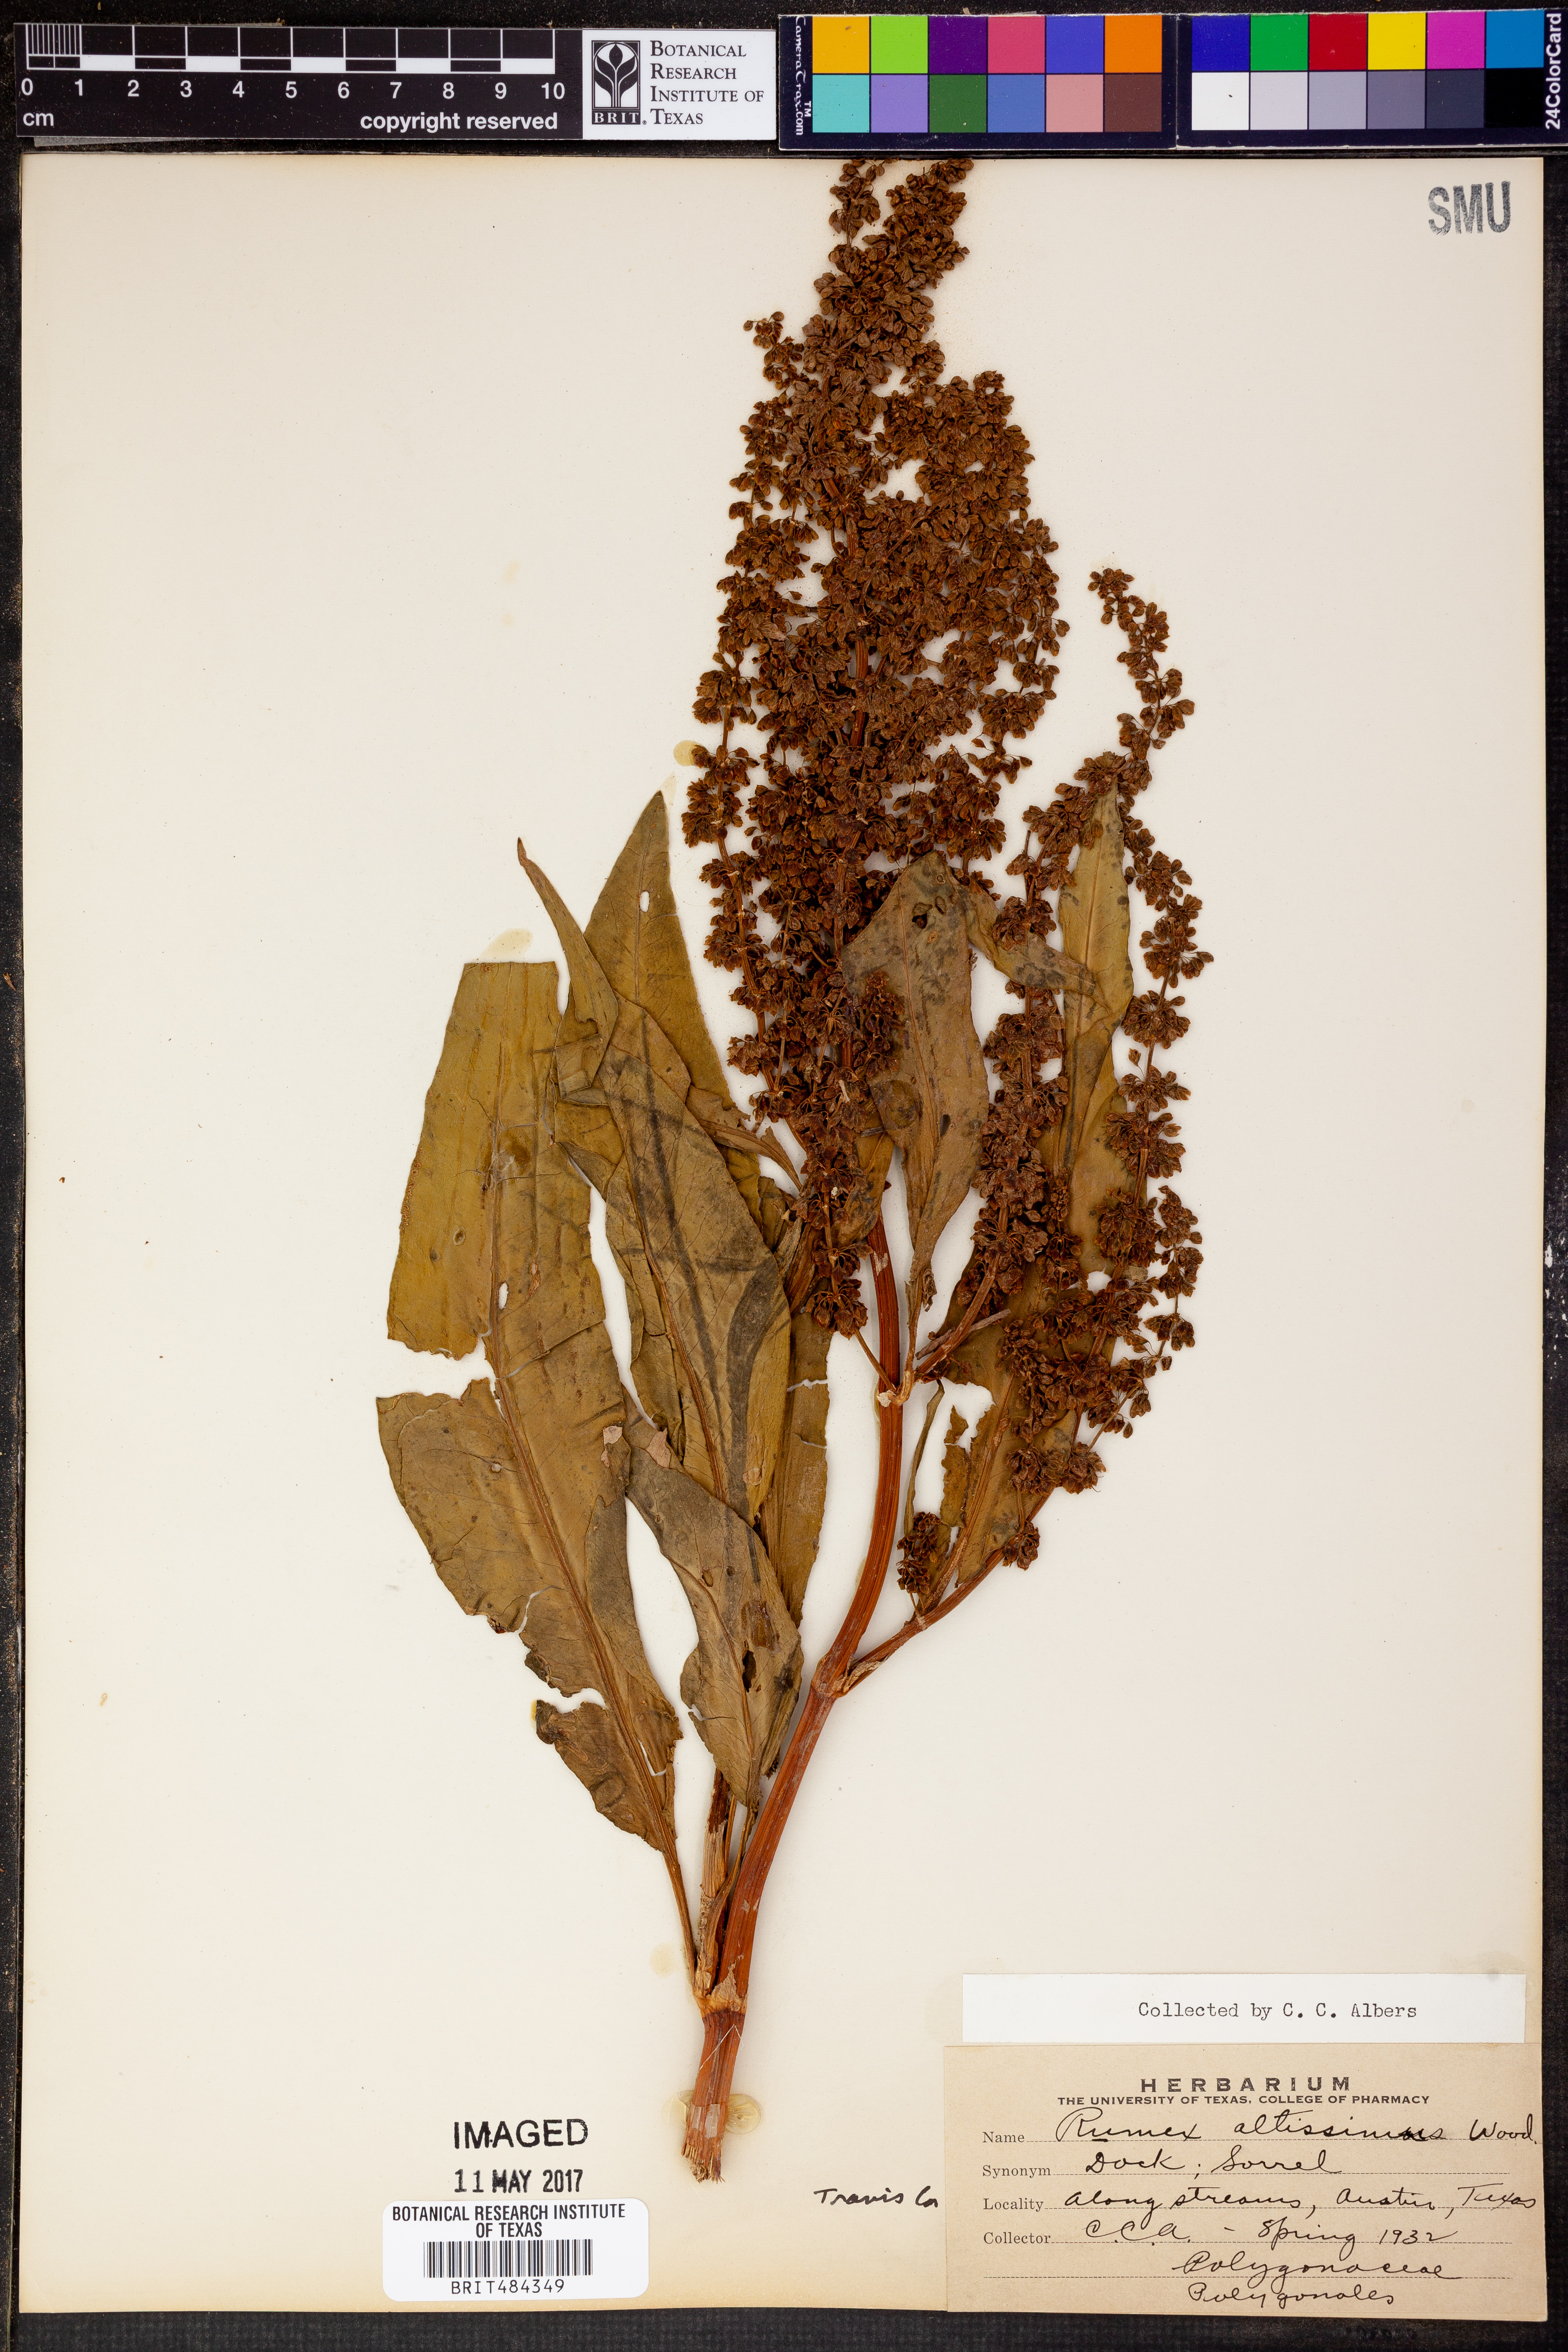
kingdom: Plantae
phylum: Tracheophyta
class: Magnoliopsida
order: Caryophyllales
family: Polygonaceae
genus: Rumex
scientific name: Rumex altissimus
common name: Smooth dock
